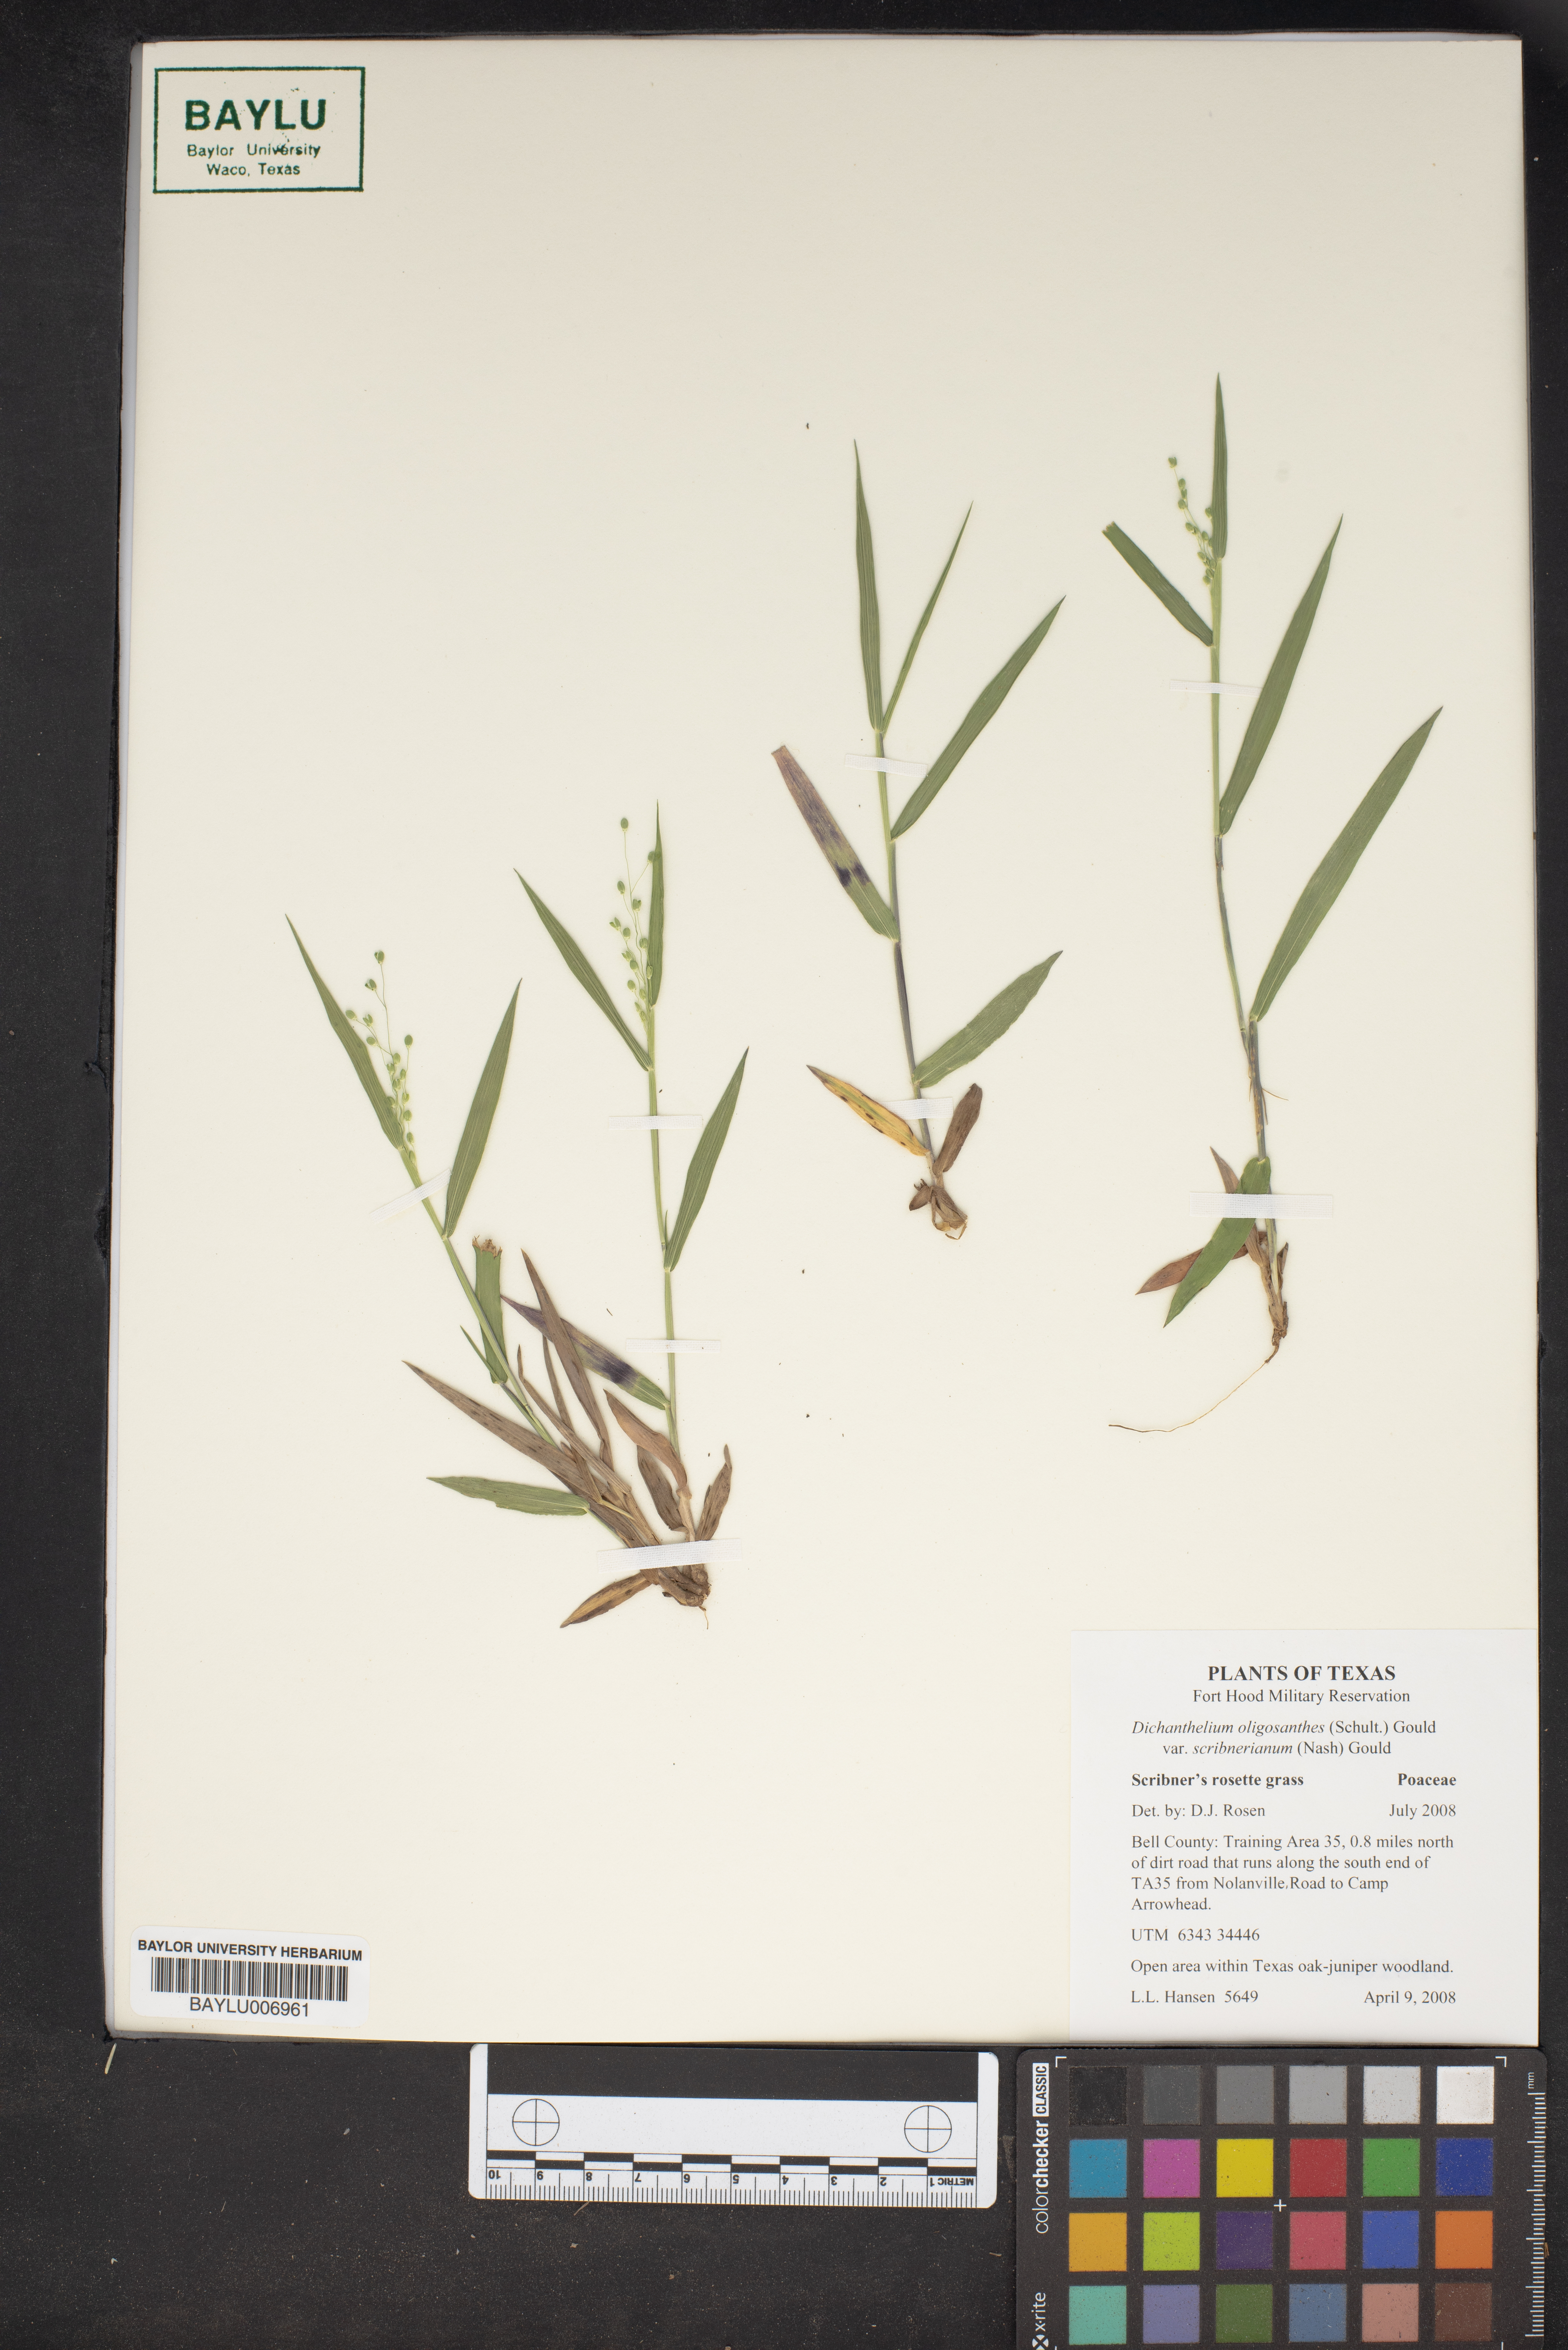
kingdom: Plantae
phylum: Tracheophyta
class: Liliopsida
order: Poales
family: Poaceae
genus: Dichanthelium
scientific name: Dichanthelium oligosanthes
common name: Few-anther obscuregrass
